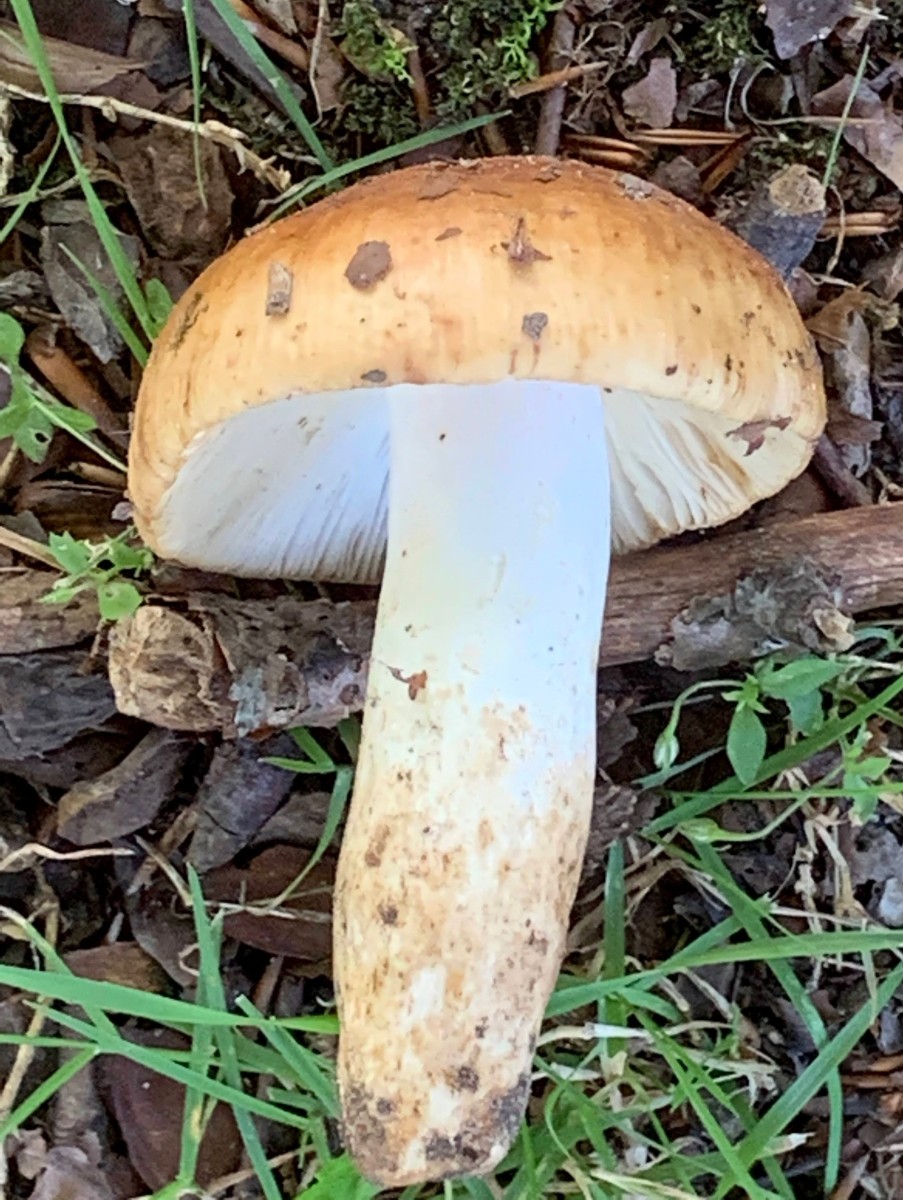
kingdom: Fungi
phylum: Basidiomycota
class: Agaricomycetes
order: Russulales
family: Russulaceae
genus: Russula
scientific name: Russula foetens
